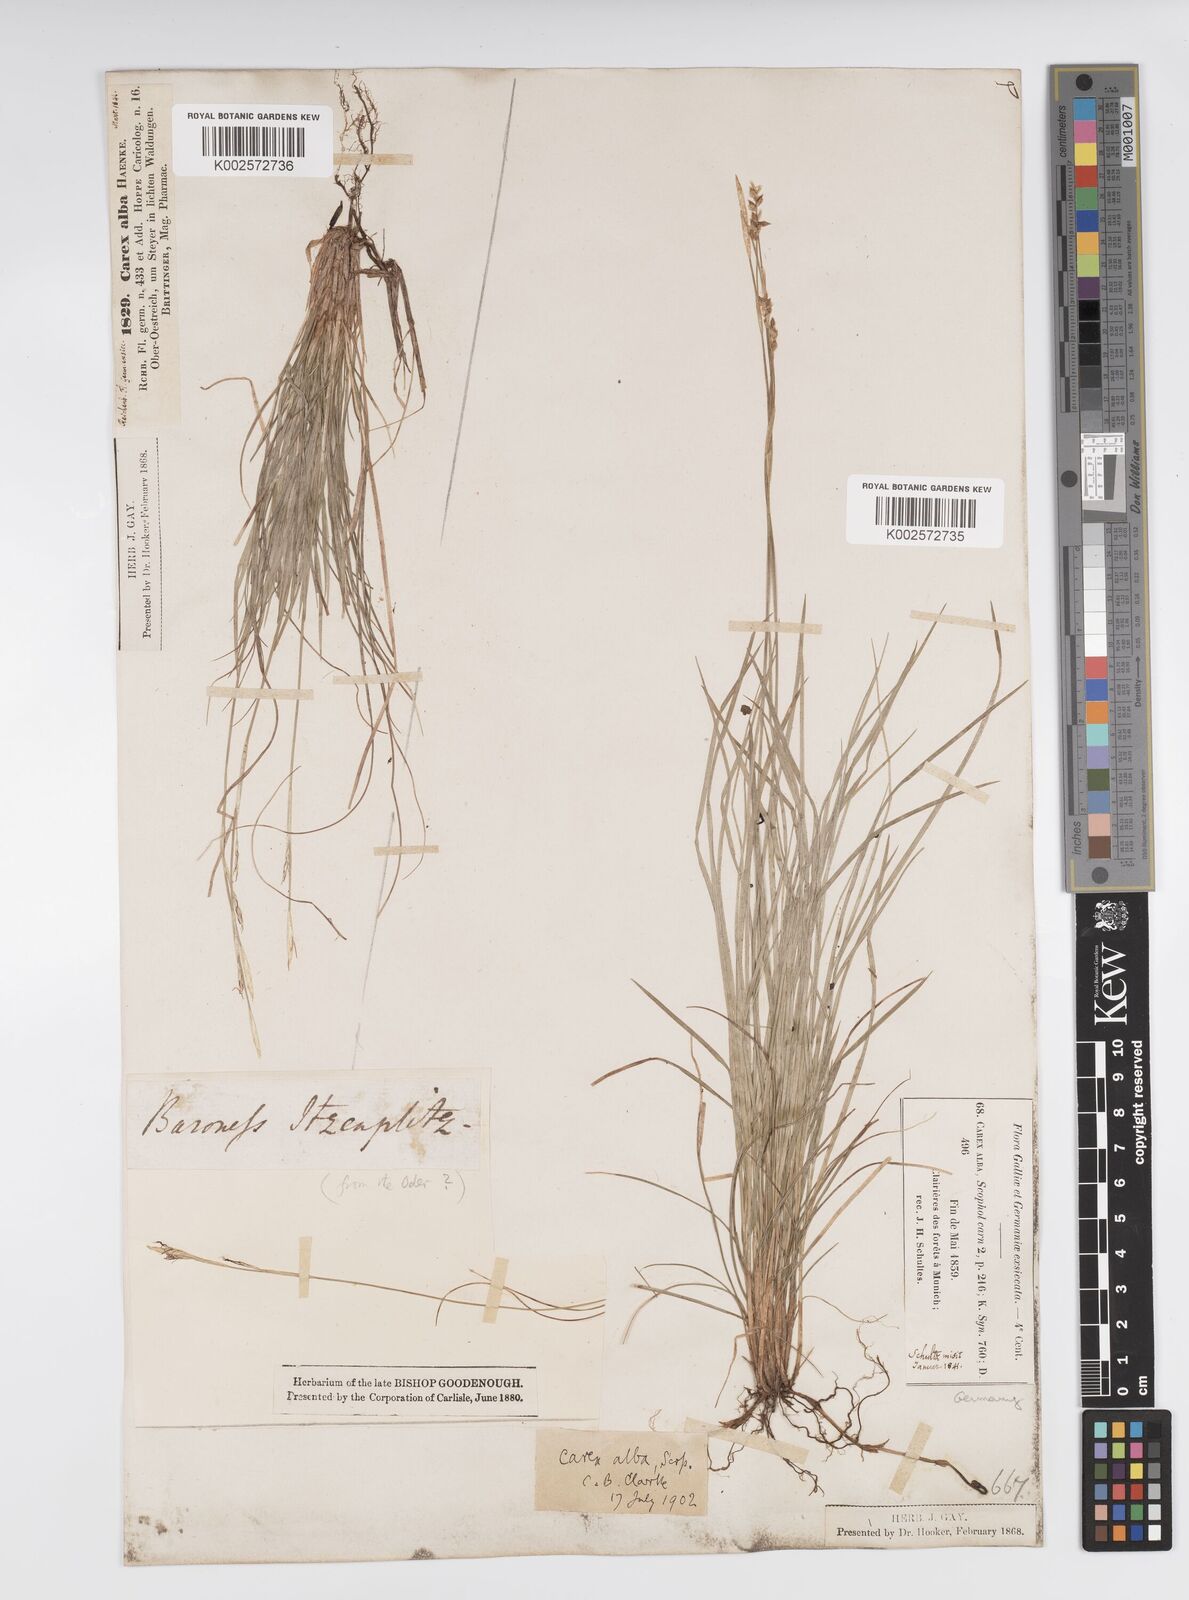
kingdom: Plantae
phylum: Tracheophyta
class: Liliopsida
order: Poales
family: Cyperaceae
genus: Carex
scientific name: Carex alba
